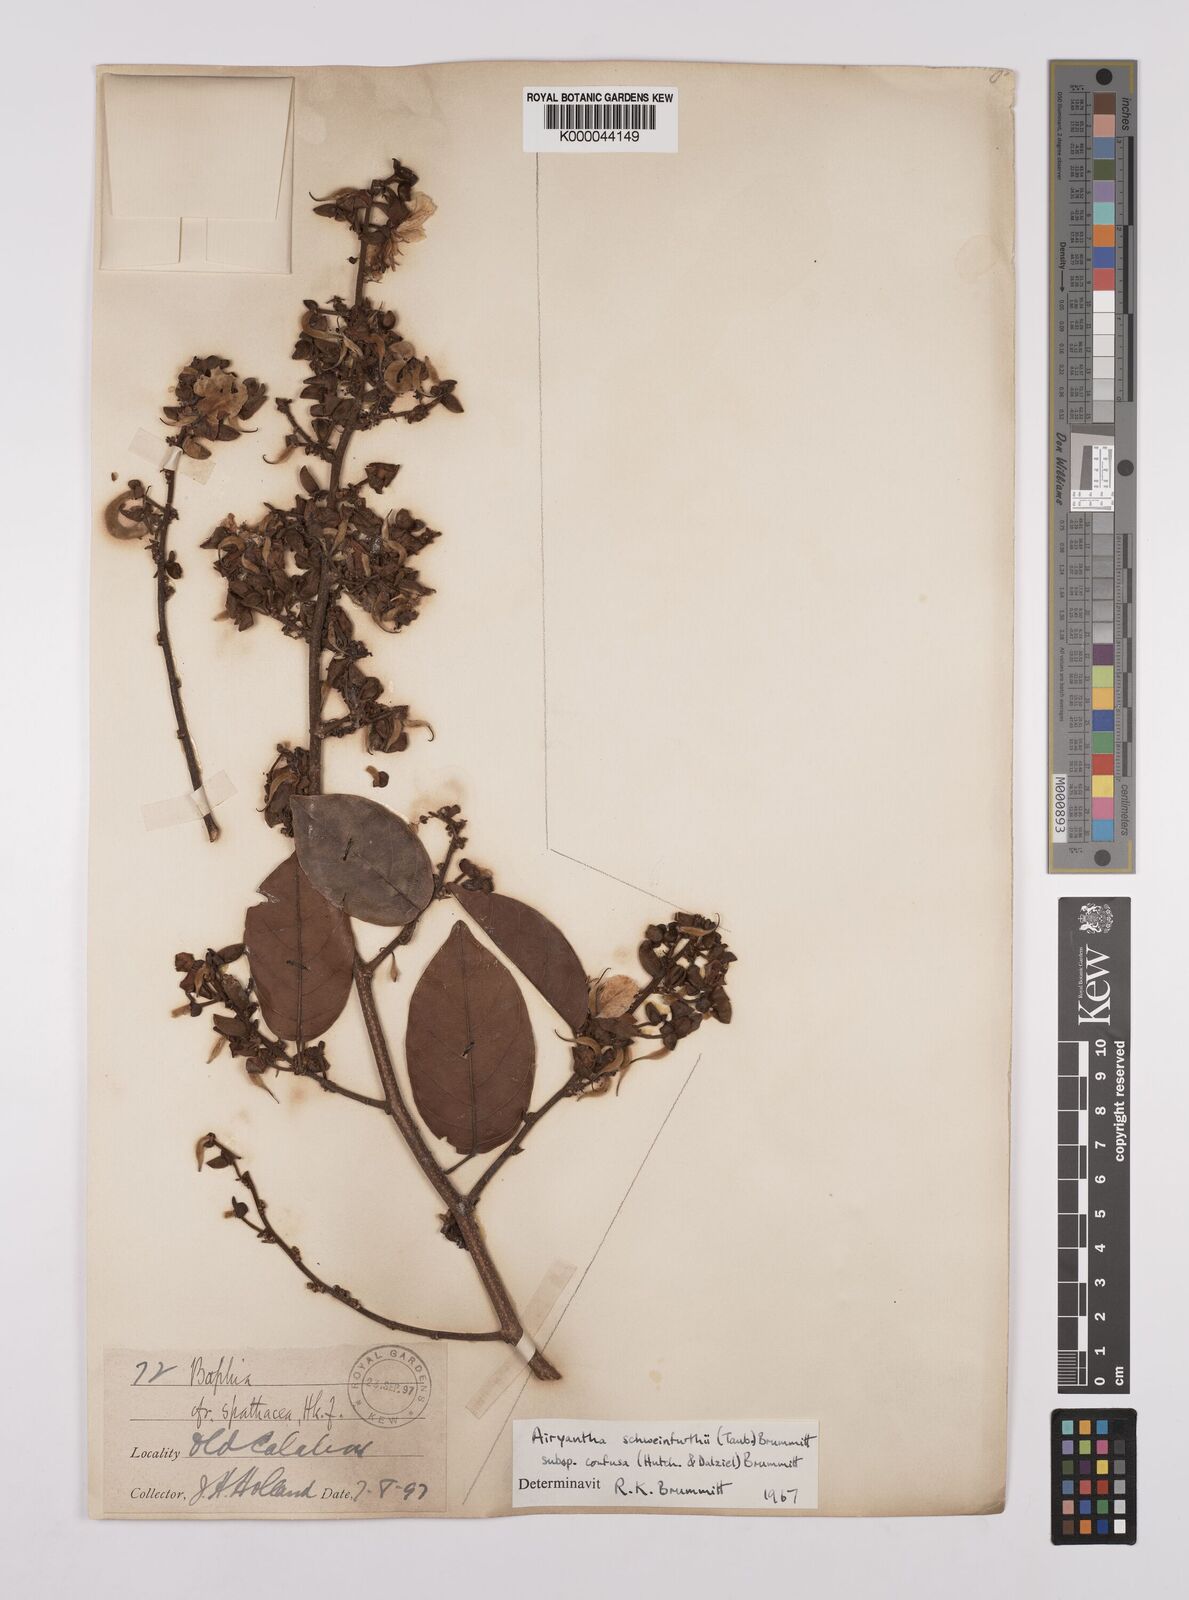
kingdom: Plantae
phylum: Tracheophyta
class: Magnoliopsida
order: Fabales
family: Fabaceae
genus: Airyantha
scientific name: Airyantha schweinfurthii
